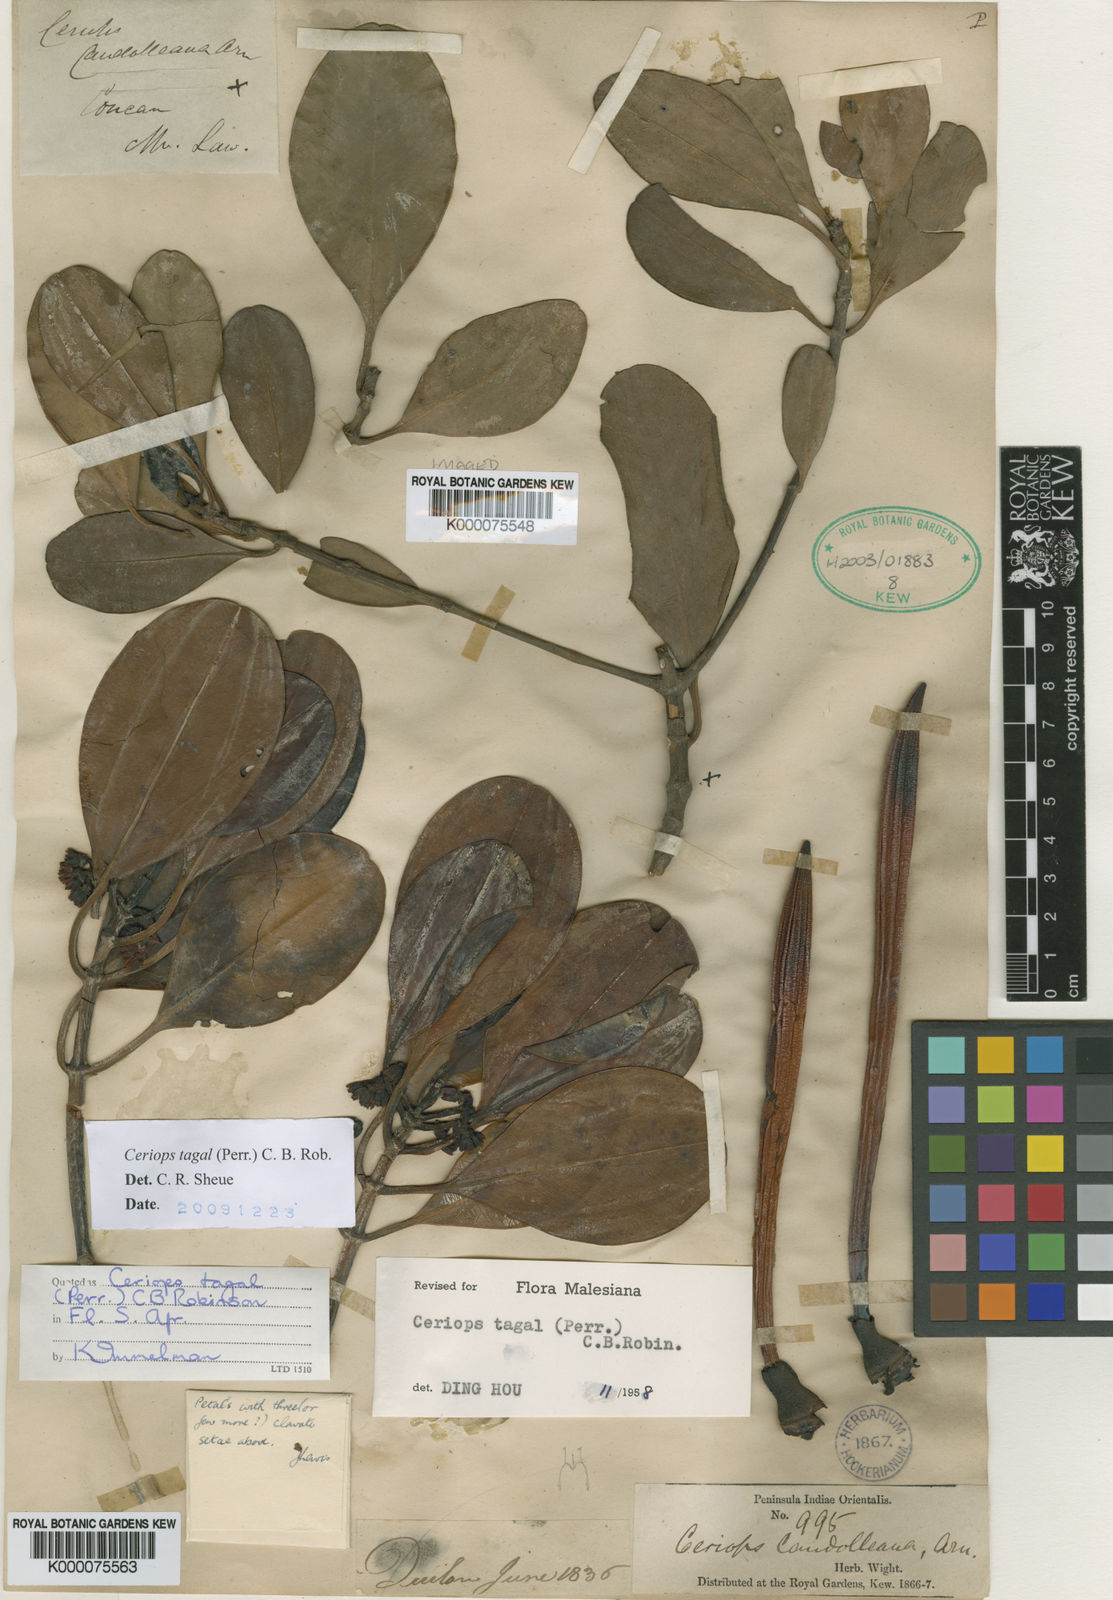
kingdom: Plantae
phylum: Tracheophyta
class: Magnoliopsida
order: Malpighiales
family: Rhizophoraceae
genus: Ceriops
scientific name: Ceriops tagal
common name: Spurred mangrove
